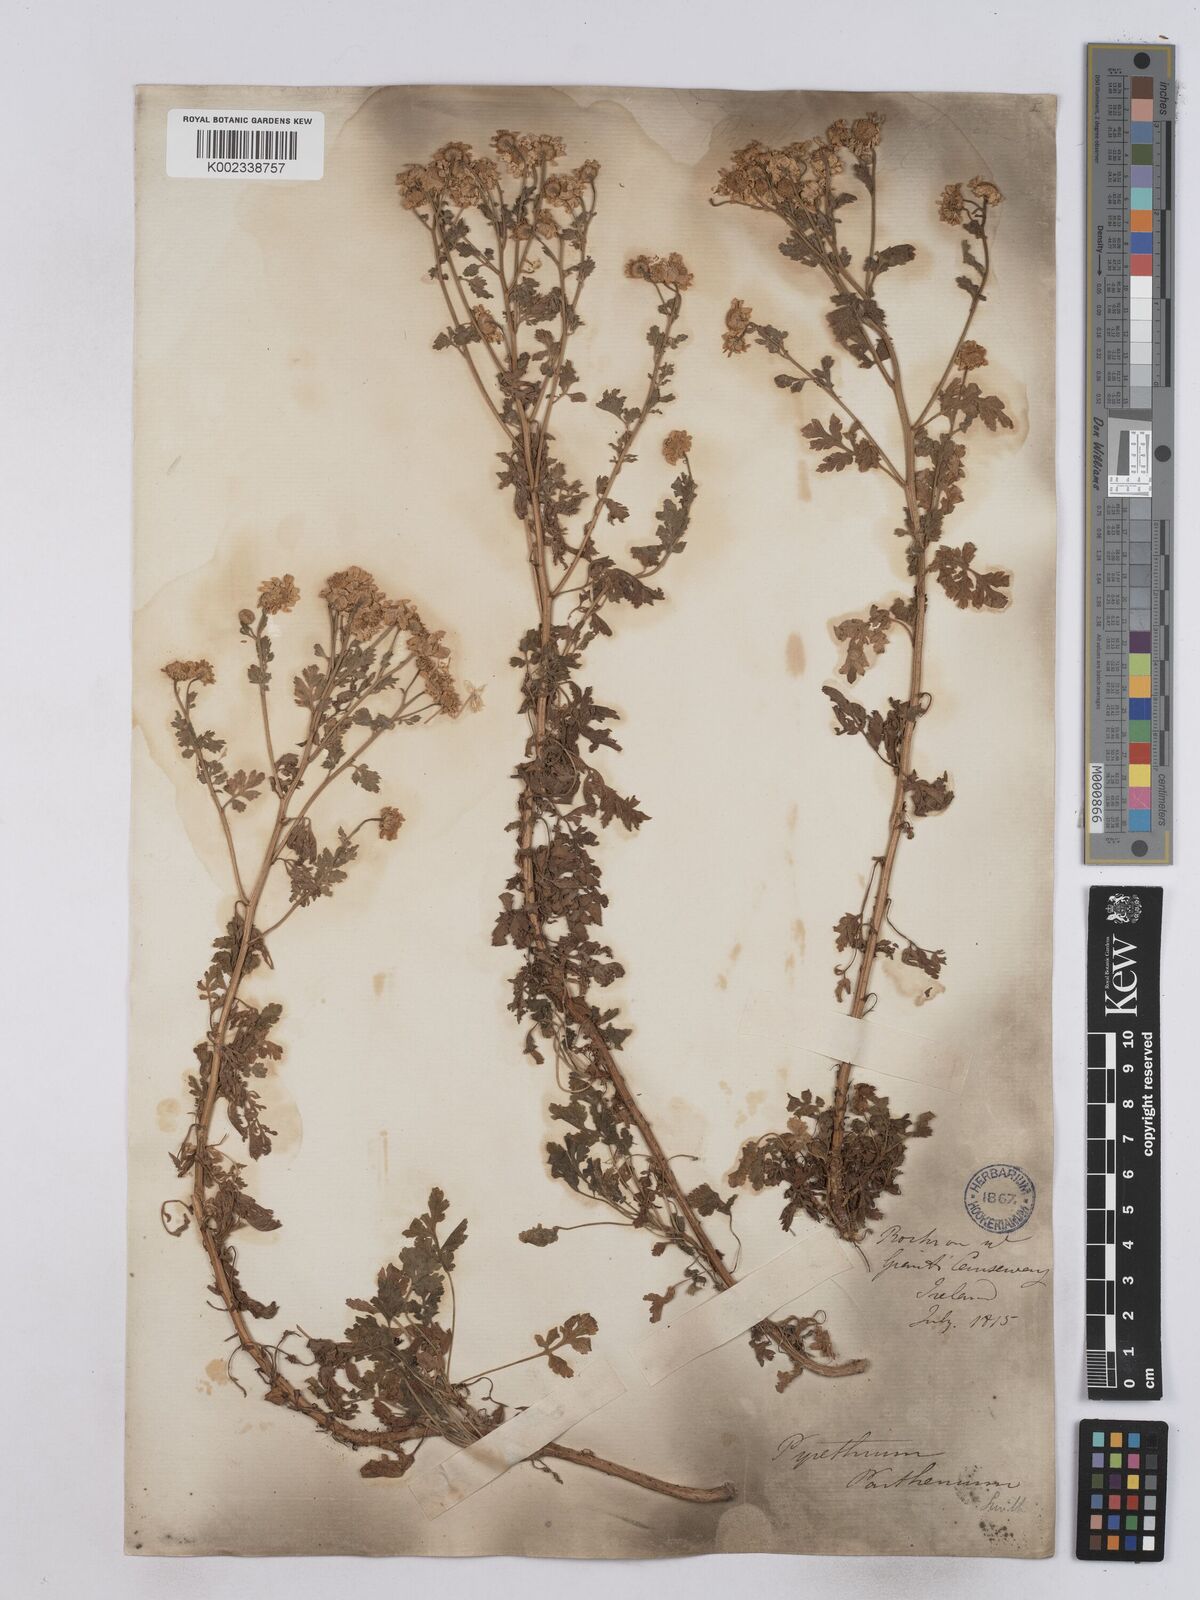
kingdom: Plantae
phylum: Tracheophyta
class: Magnoliopsida
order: Asterales
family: Asteraceae
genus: Tanacetum
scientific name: Tanacetum parthenium
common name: Feverfew
